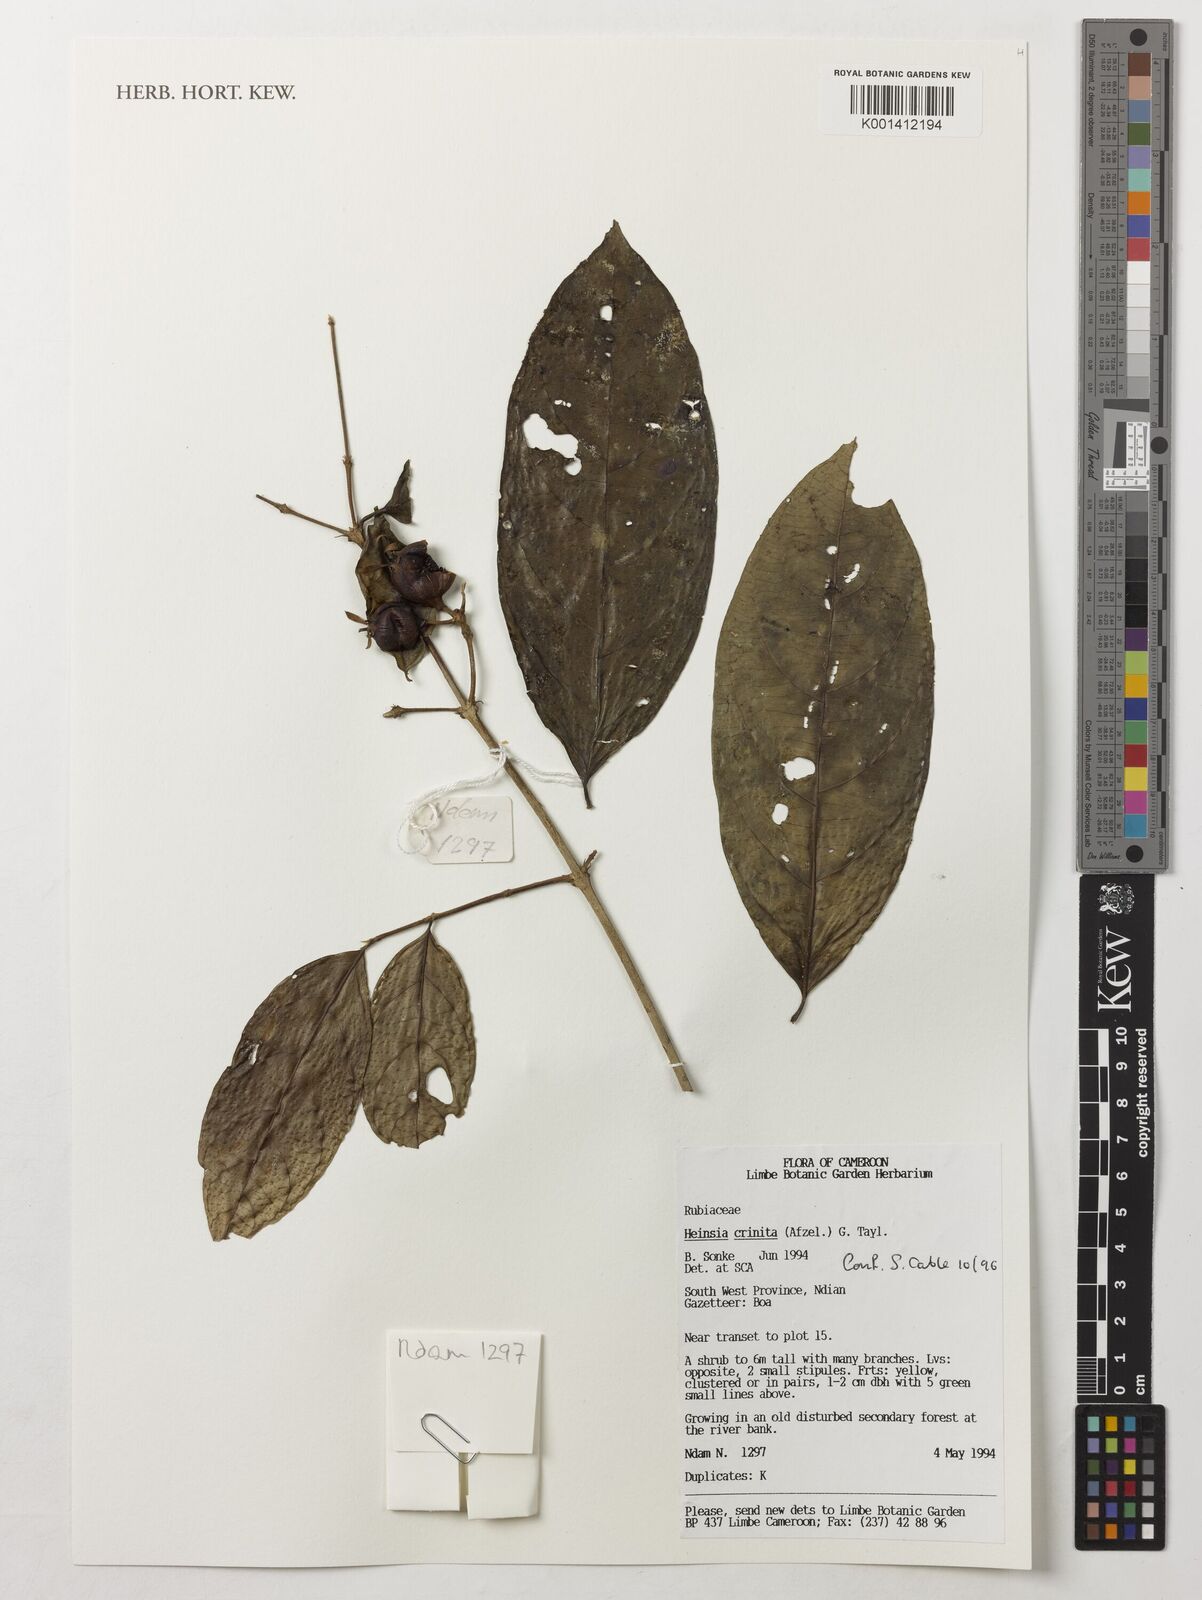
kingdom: Plantae
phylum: Tracheophyta
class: Magnoliopsida
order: Gentianales
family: Rubiaceae
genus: Heinsia
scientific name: Heinsia crinita
